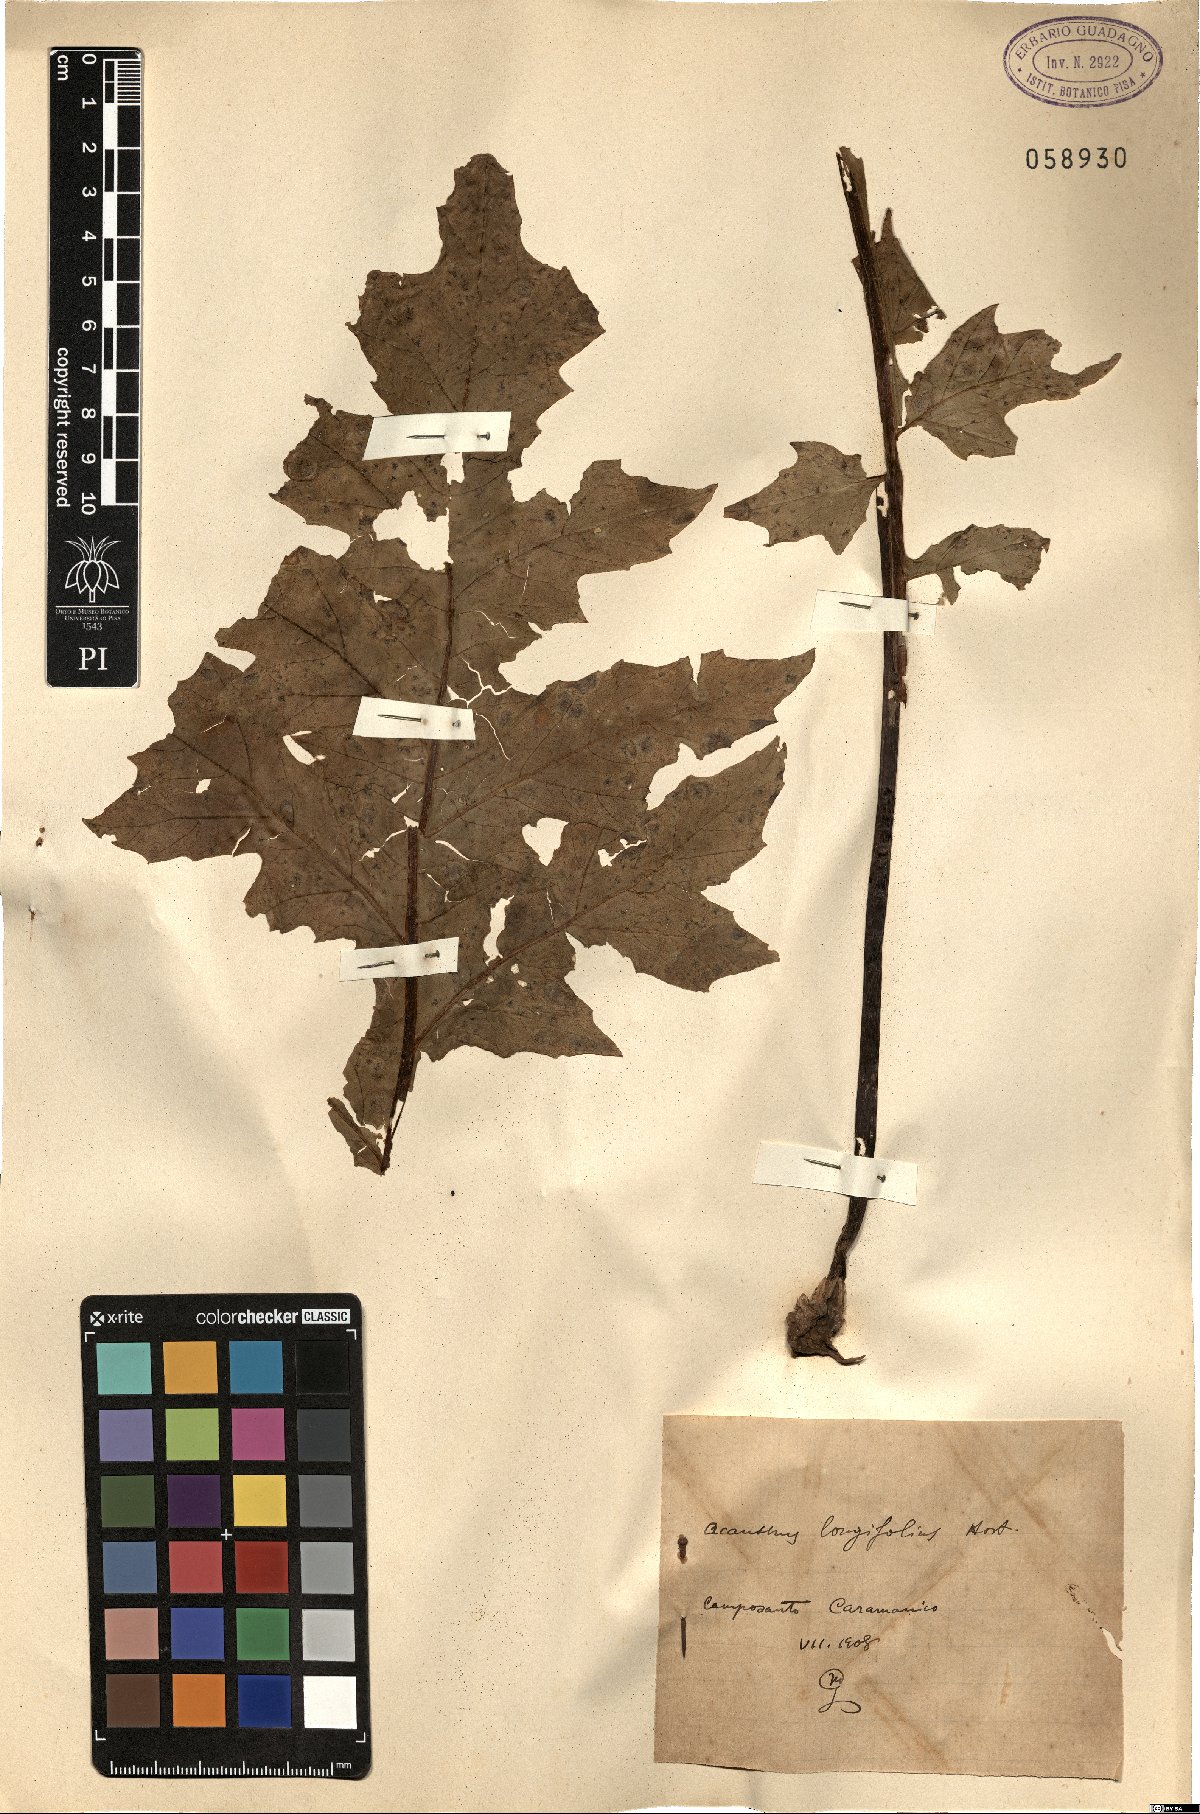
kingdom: Plantae
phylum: Tracheophyta
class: Magnoliopsida
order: Lamiales
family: Acanthaceae
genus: Acanthus
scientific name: Acanthus mollis
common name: Bear's-breech
